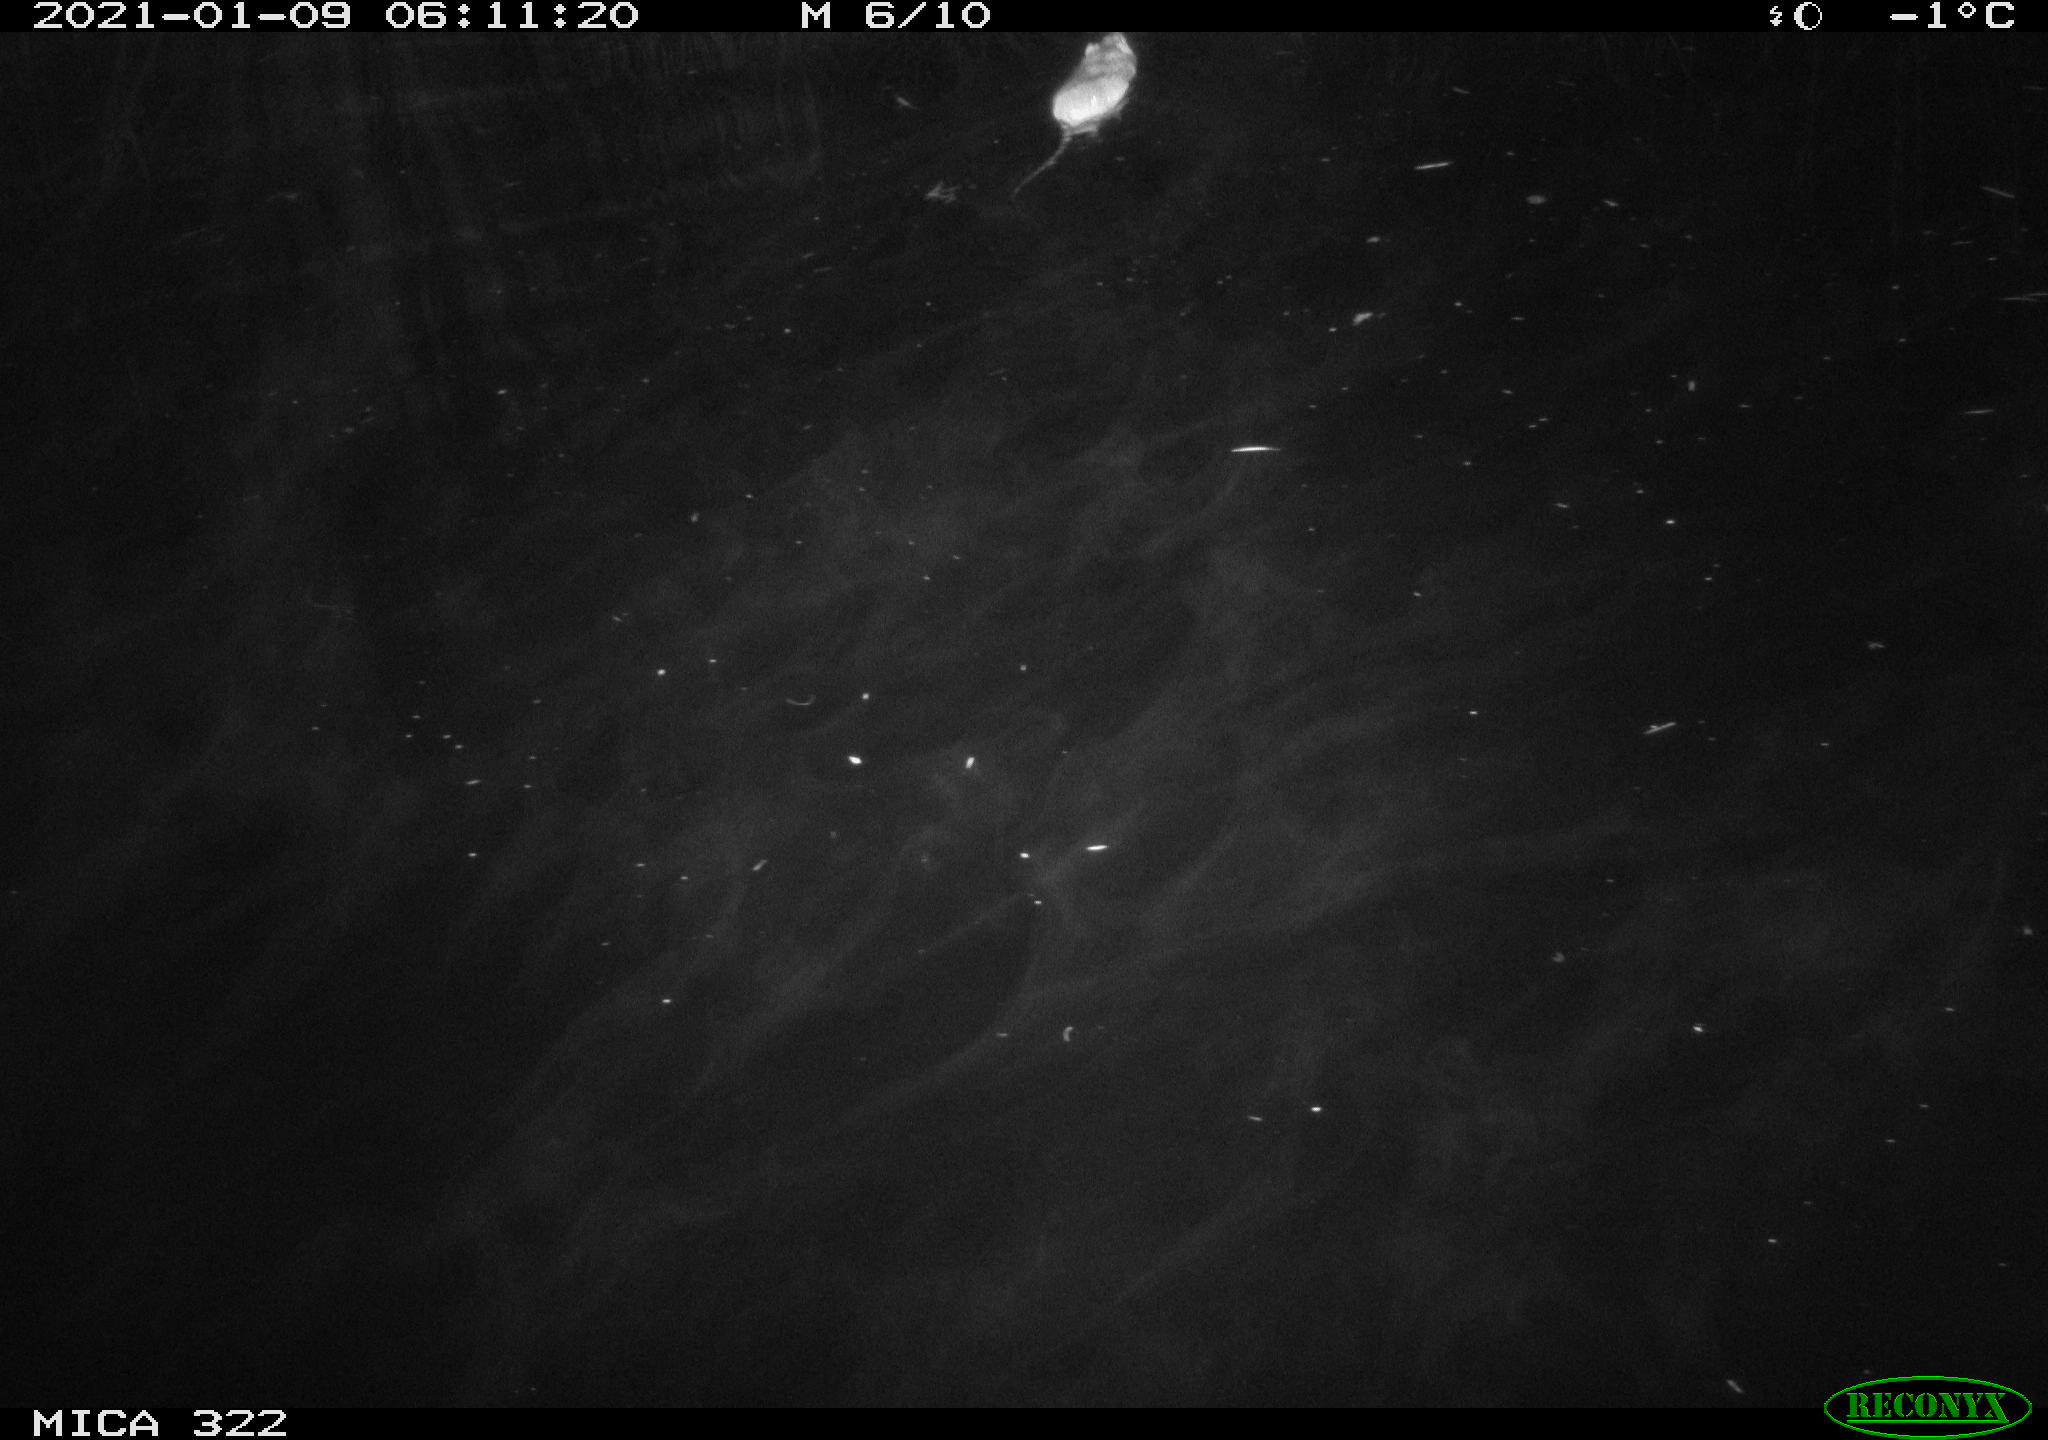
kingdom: Animalia
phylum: Chordata
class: Mammalia
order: Rodentia
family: Muridae
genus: Rattus
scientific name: Rattus norvegicus
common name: Brown rat
